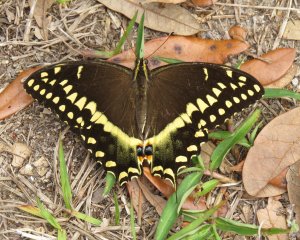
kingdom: Animalia
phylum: Arthropoda
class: Insecta
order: Lepidoptera
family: Papilionidae
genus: Pterourus
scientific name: Pterourus palamedes
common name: Palamedes Swallowtail
